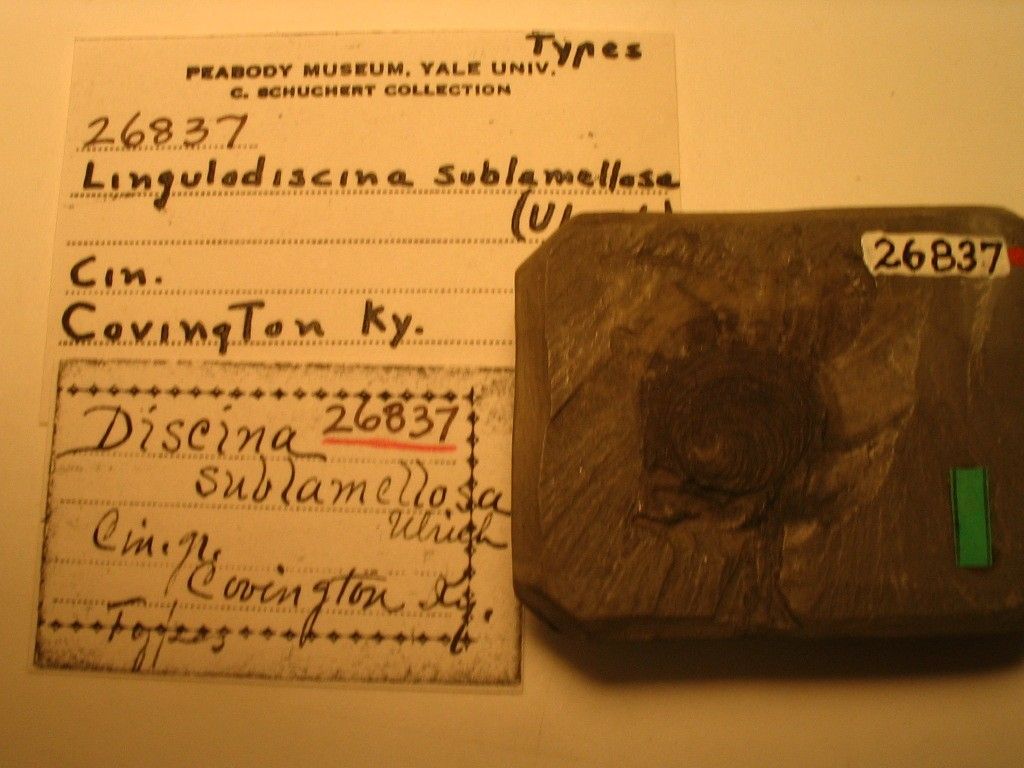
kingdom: Animalia
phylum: Brachiopoda
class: Lingulata
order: Lingulida
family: Discinidae
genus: Discina
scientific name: Discina
